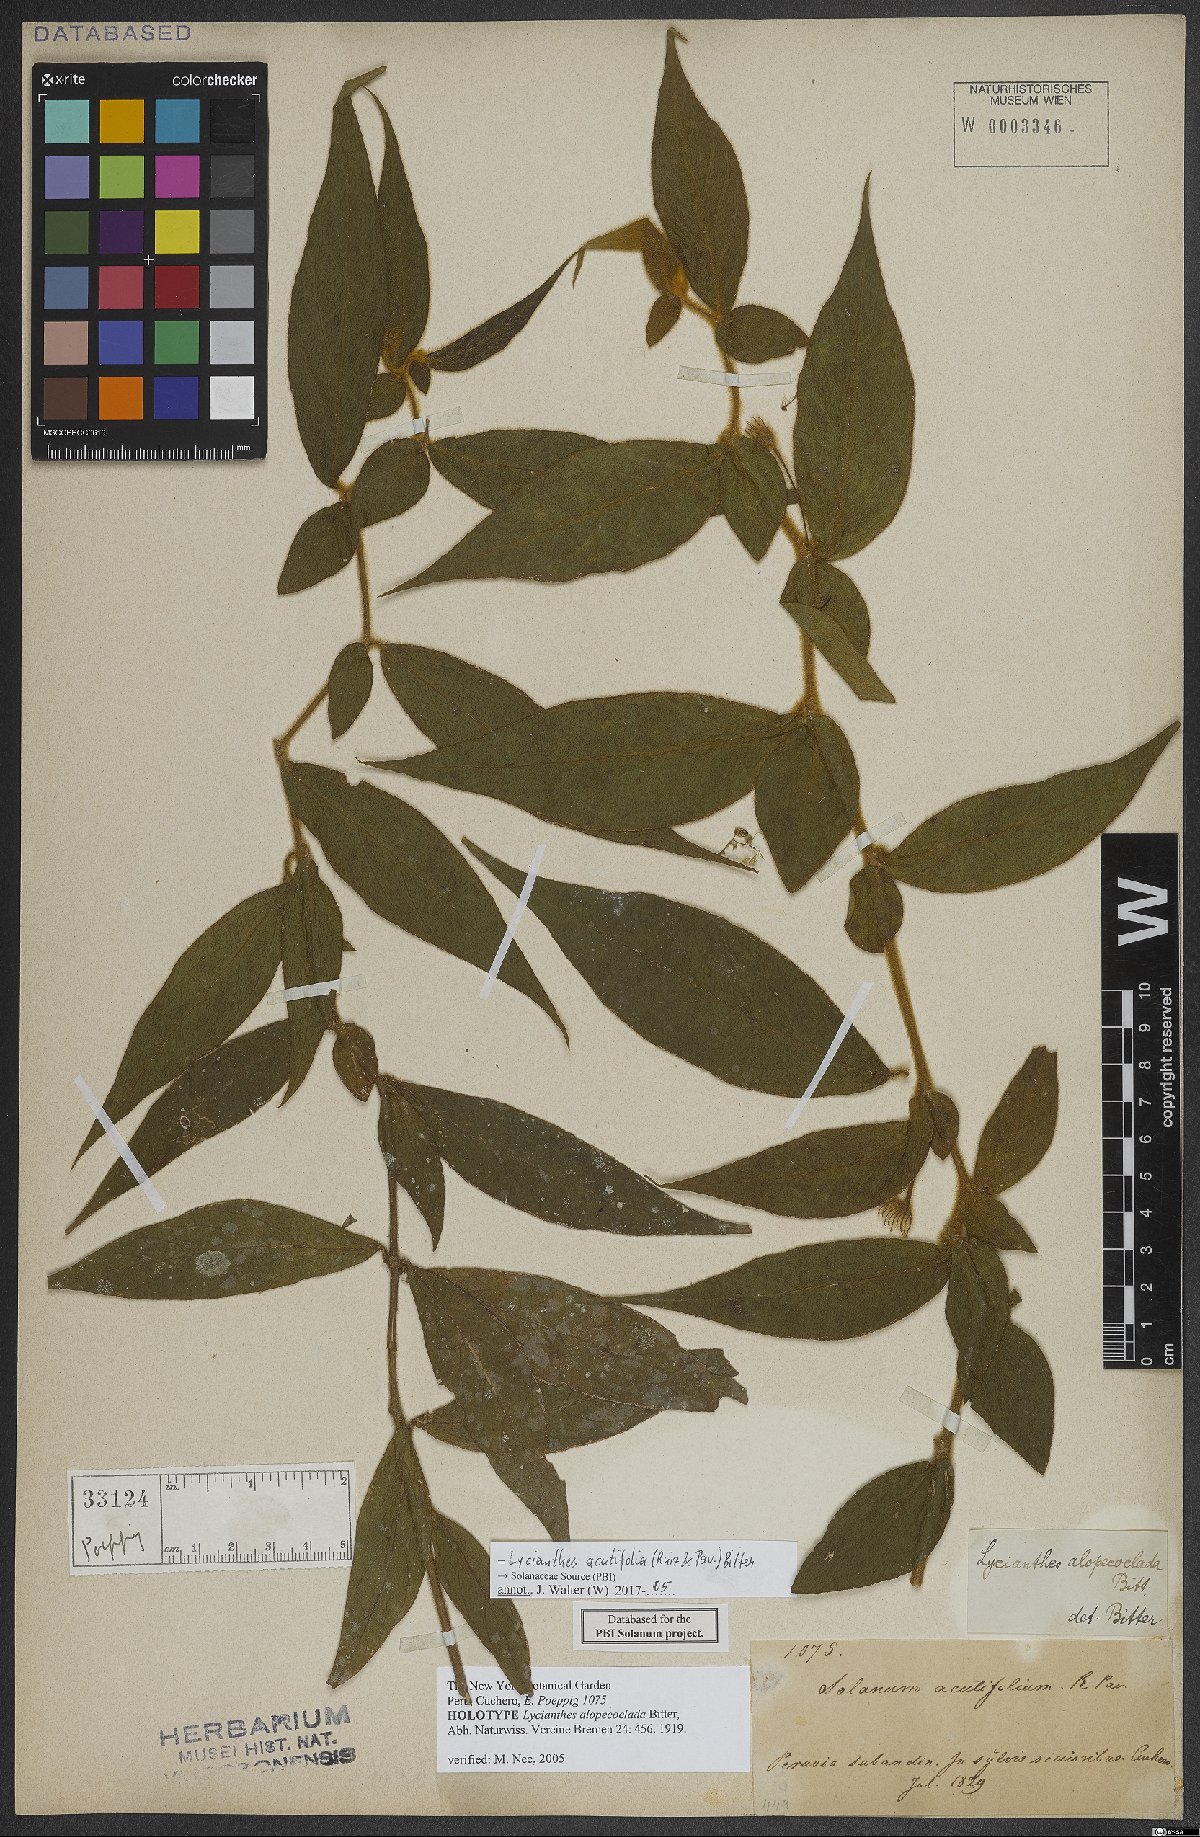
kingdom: Plantae
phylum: Tracheophyta
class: Magnoliopsida
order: Solanales
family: Solanaceae
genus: Lycianthes
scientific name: Lycianthes acutifolia
